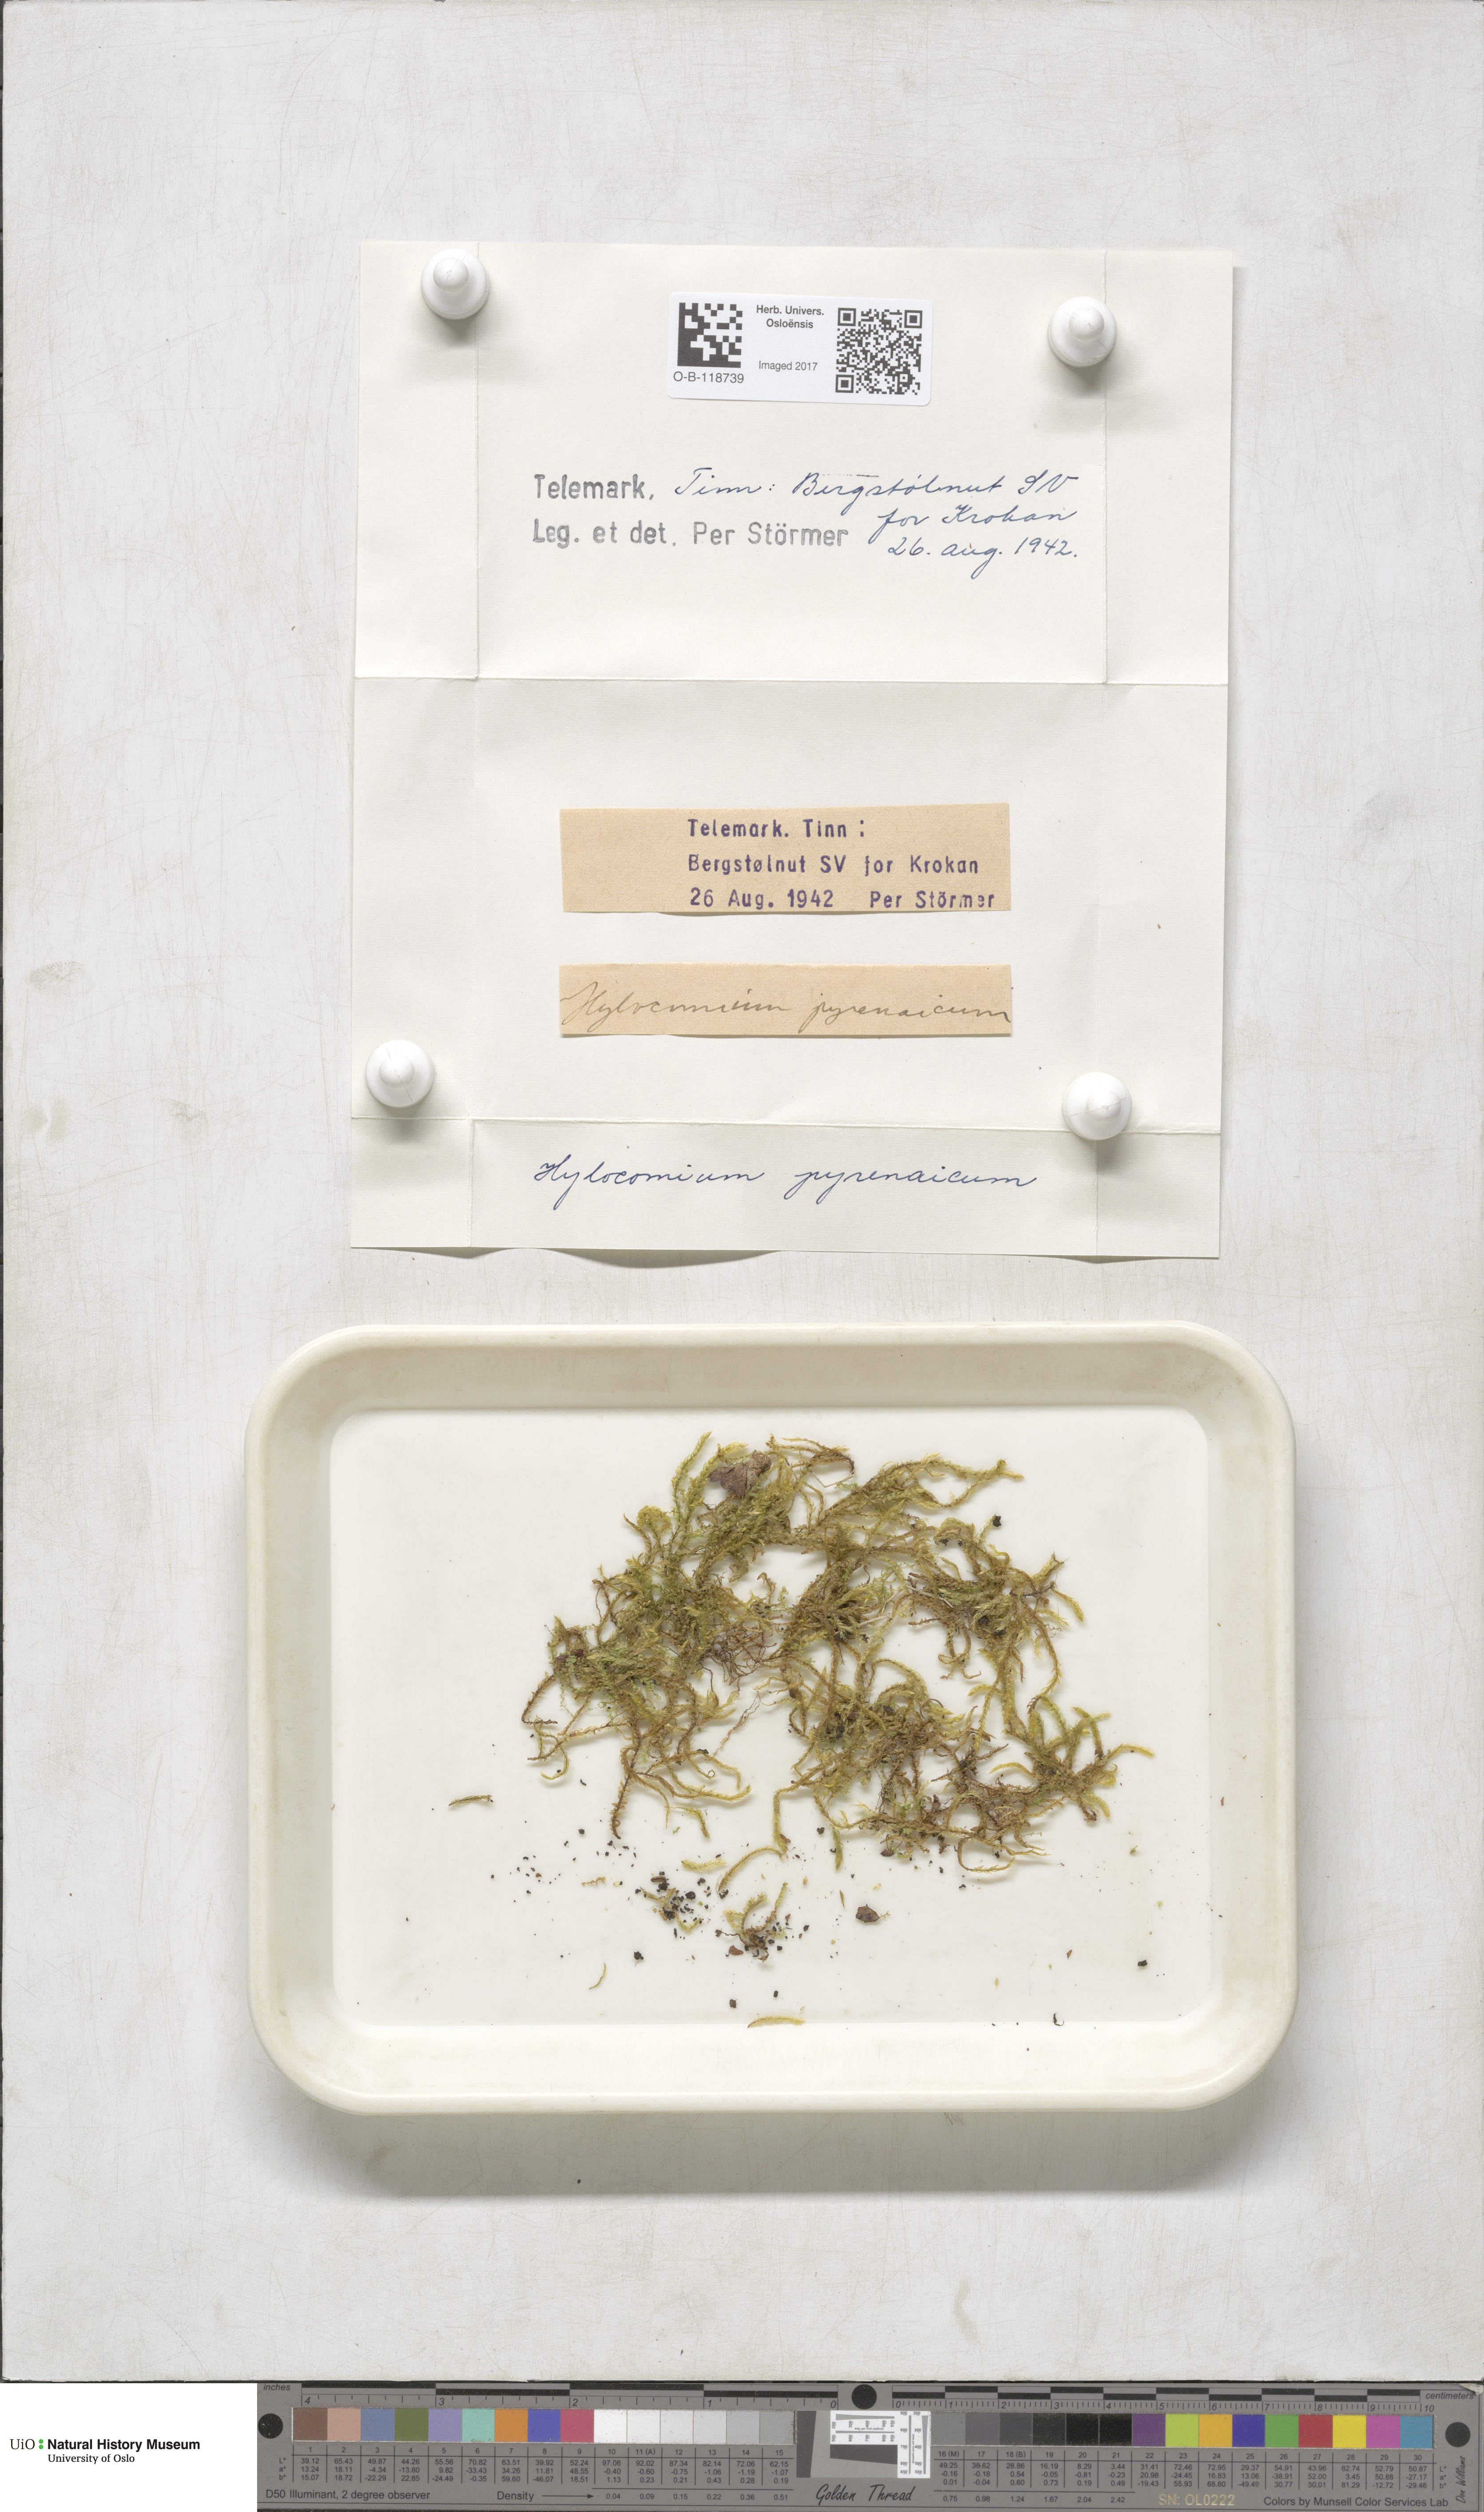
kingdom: Plantae
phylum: Bryophyta
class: Bryopsida
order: Hypnales
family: Hylocomiaceae
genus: Hylocomiastrum
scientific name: Hylocomiastrum pyrenaicum
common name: Oake s wood moss
